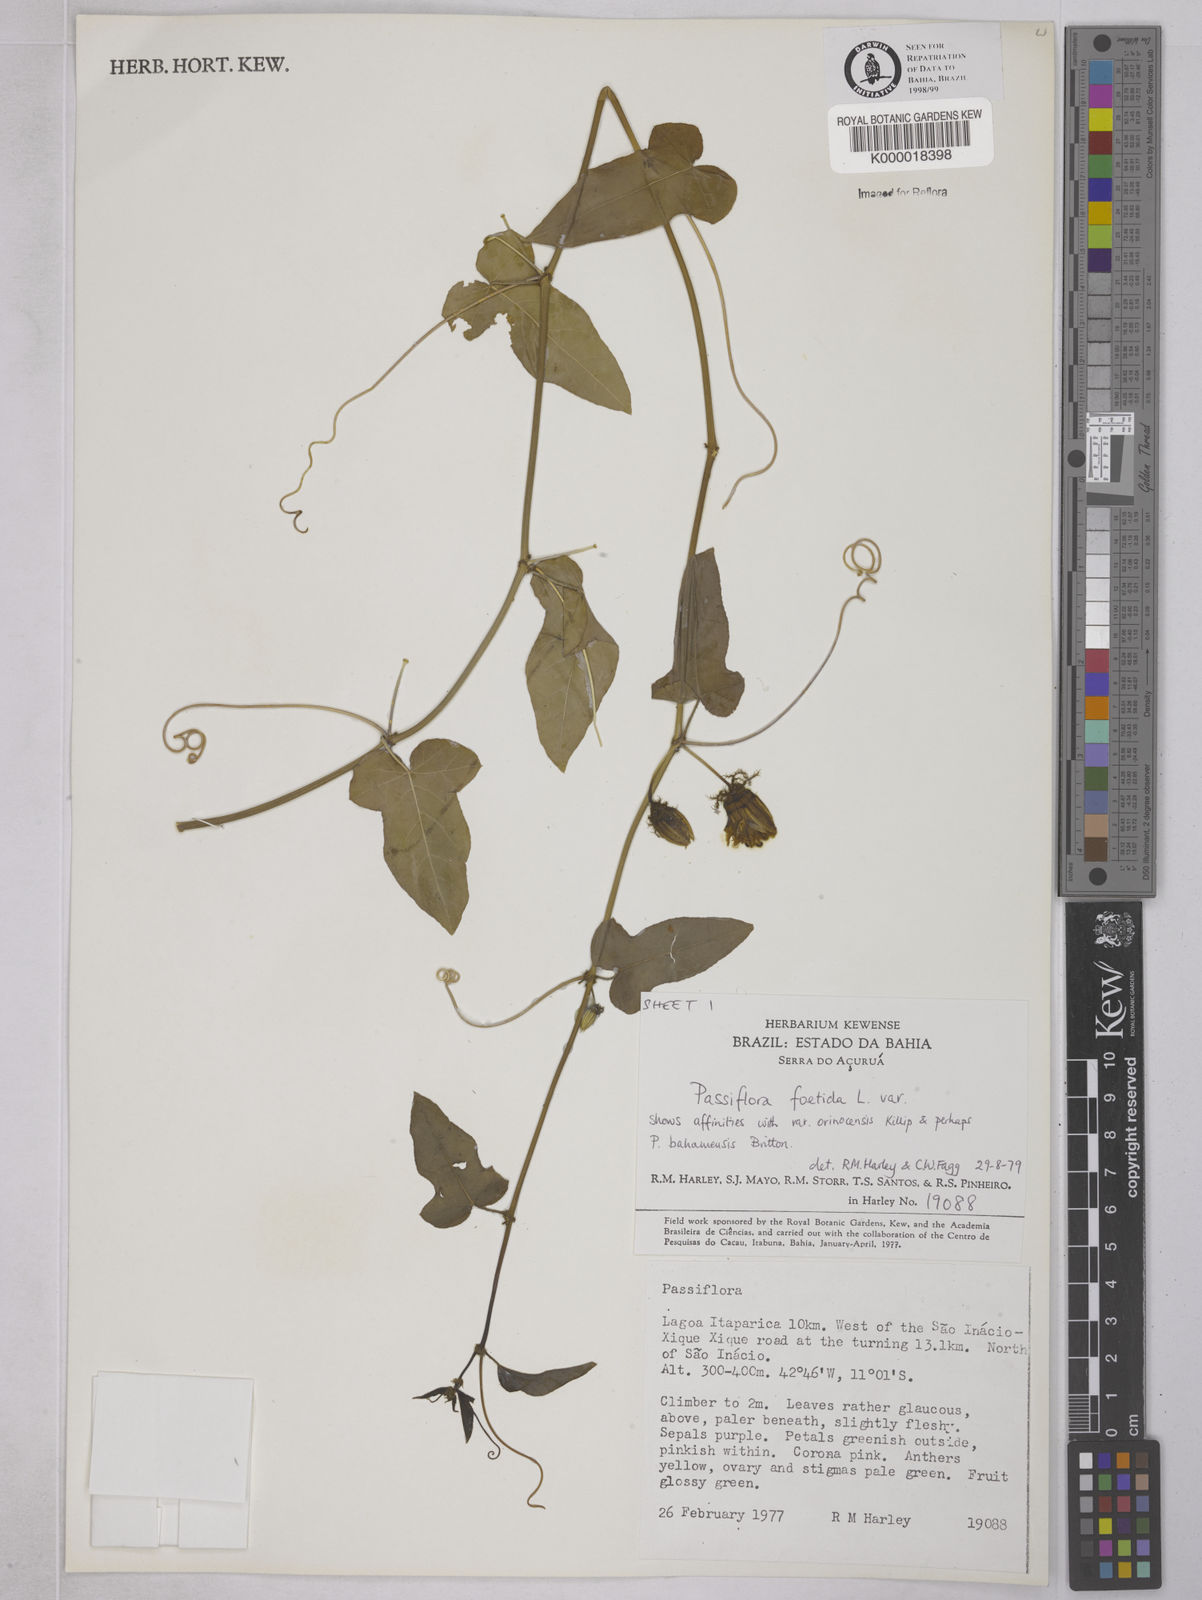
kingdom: Plantae
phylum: Tracheophyta
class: Magnoliopsida
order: Malpighiales
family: Passifloraceae
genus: Passiflora
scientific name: Passiflora ciliata
